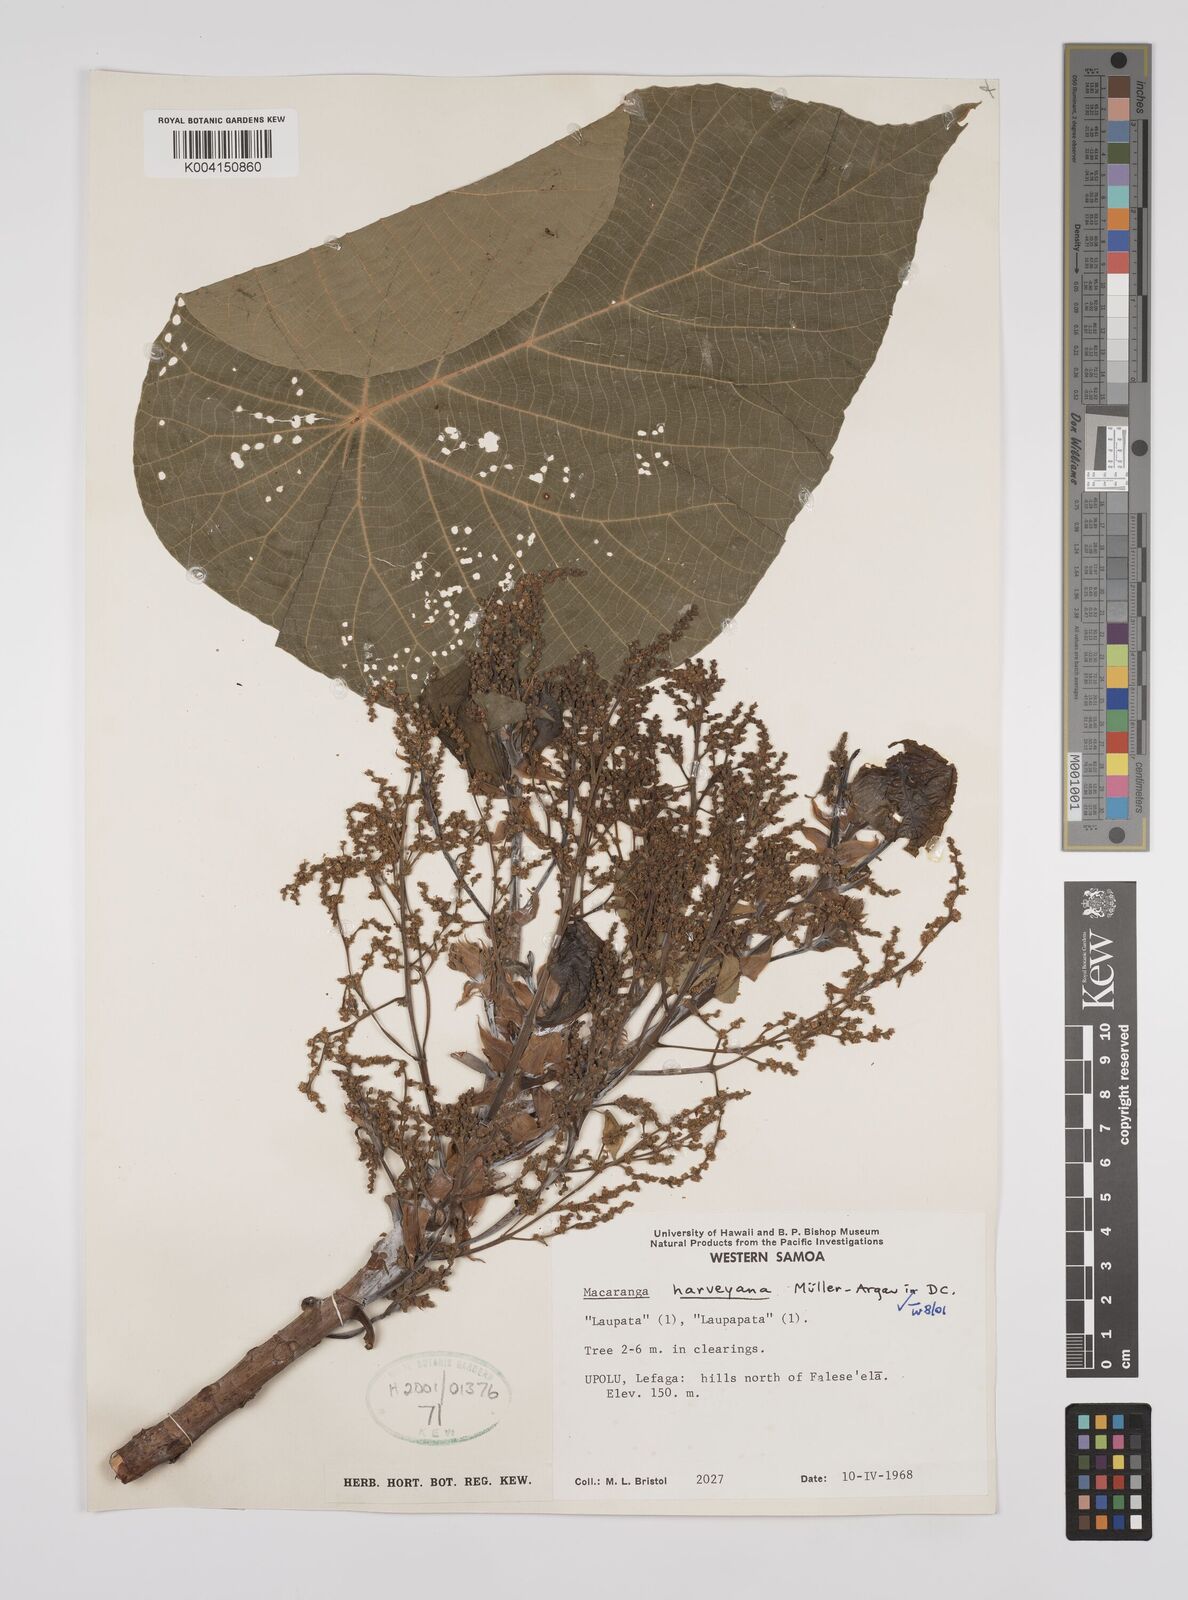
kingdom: Plantae
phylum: Tracheophyta
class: Magnoliopsida
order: Malpighiales
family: Euphorbiaceae
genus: Macaranga
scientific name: Macaranga harveyana
